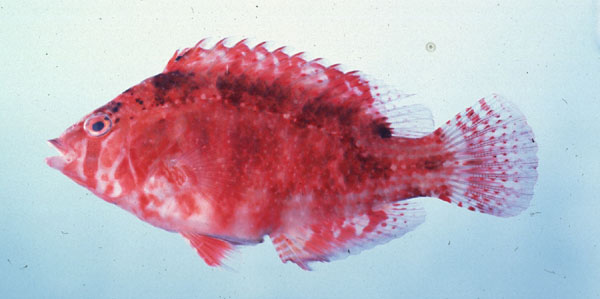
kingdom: Animalia
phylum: Chordata
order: Perciformes
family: Labridae
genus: Pteragogus
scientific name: Pteragogus taeniops
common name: Cheekbar wrasse
